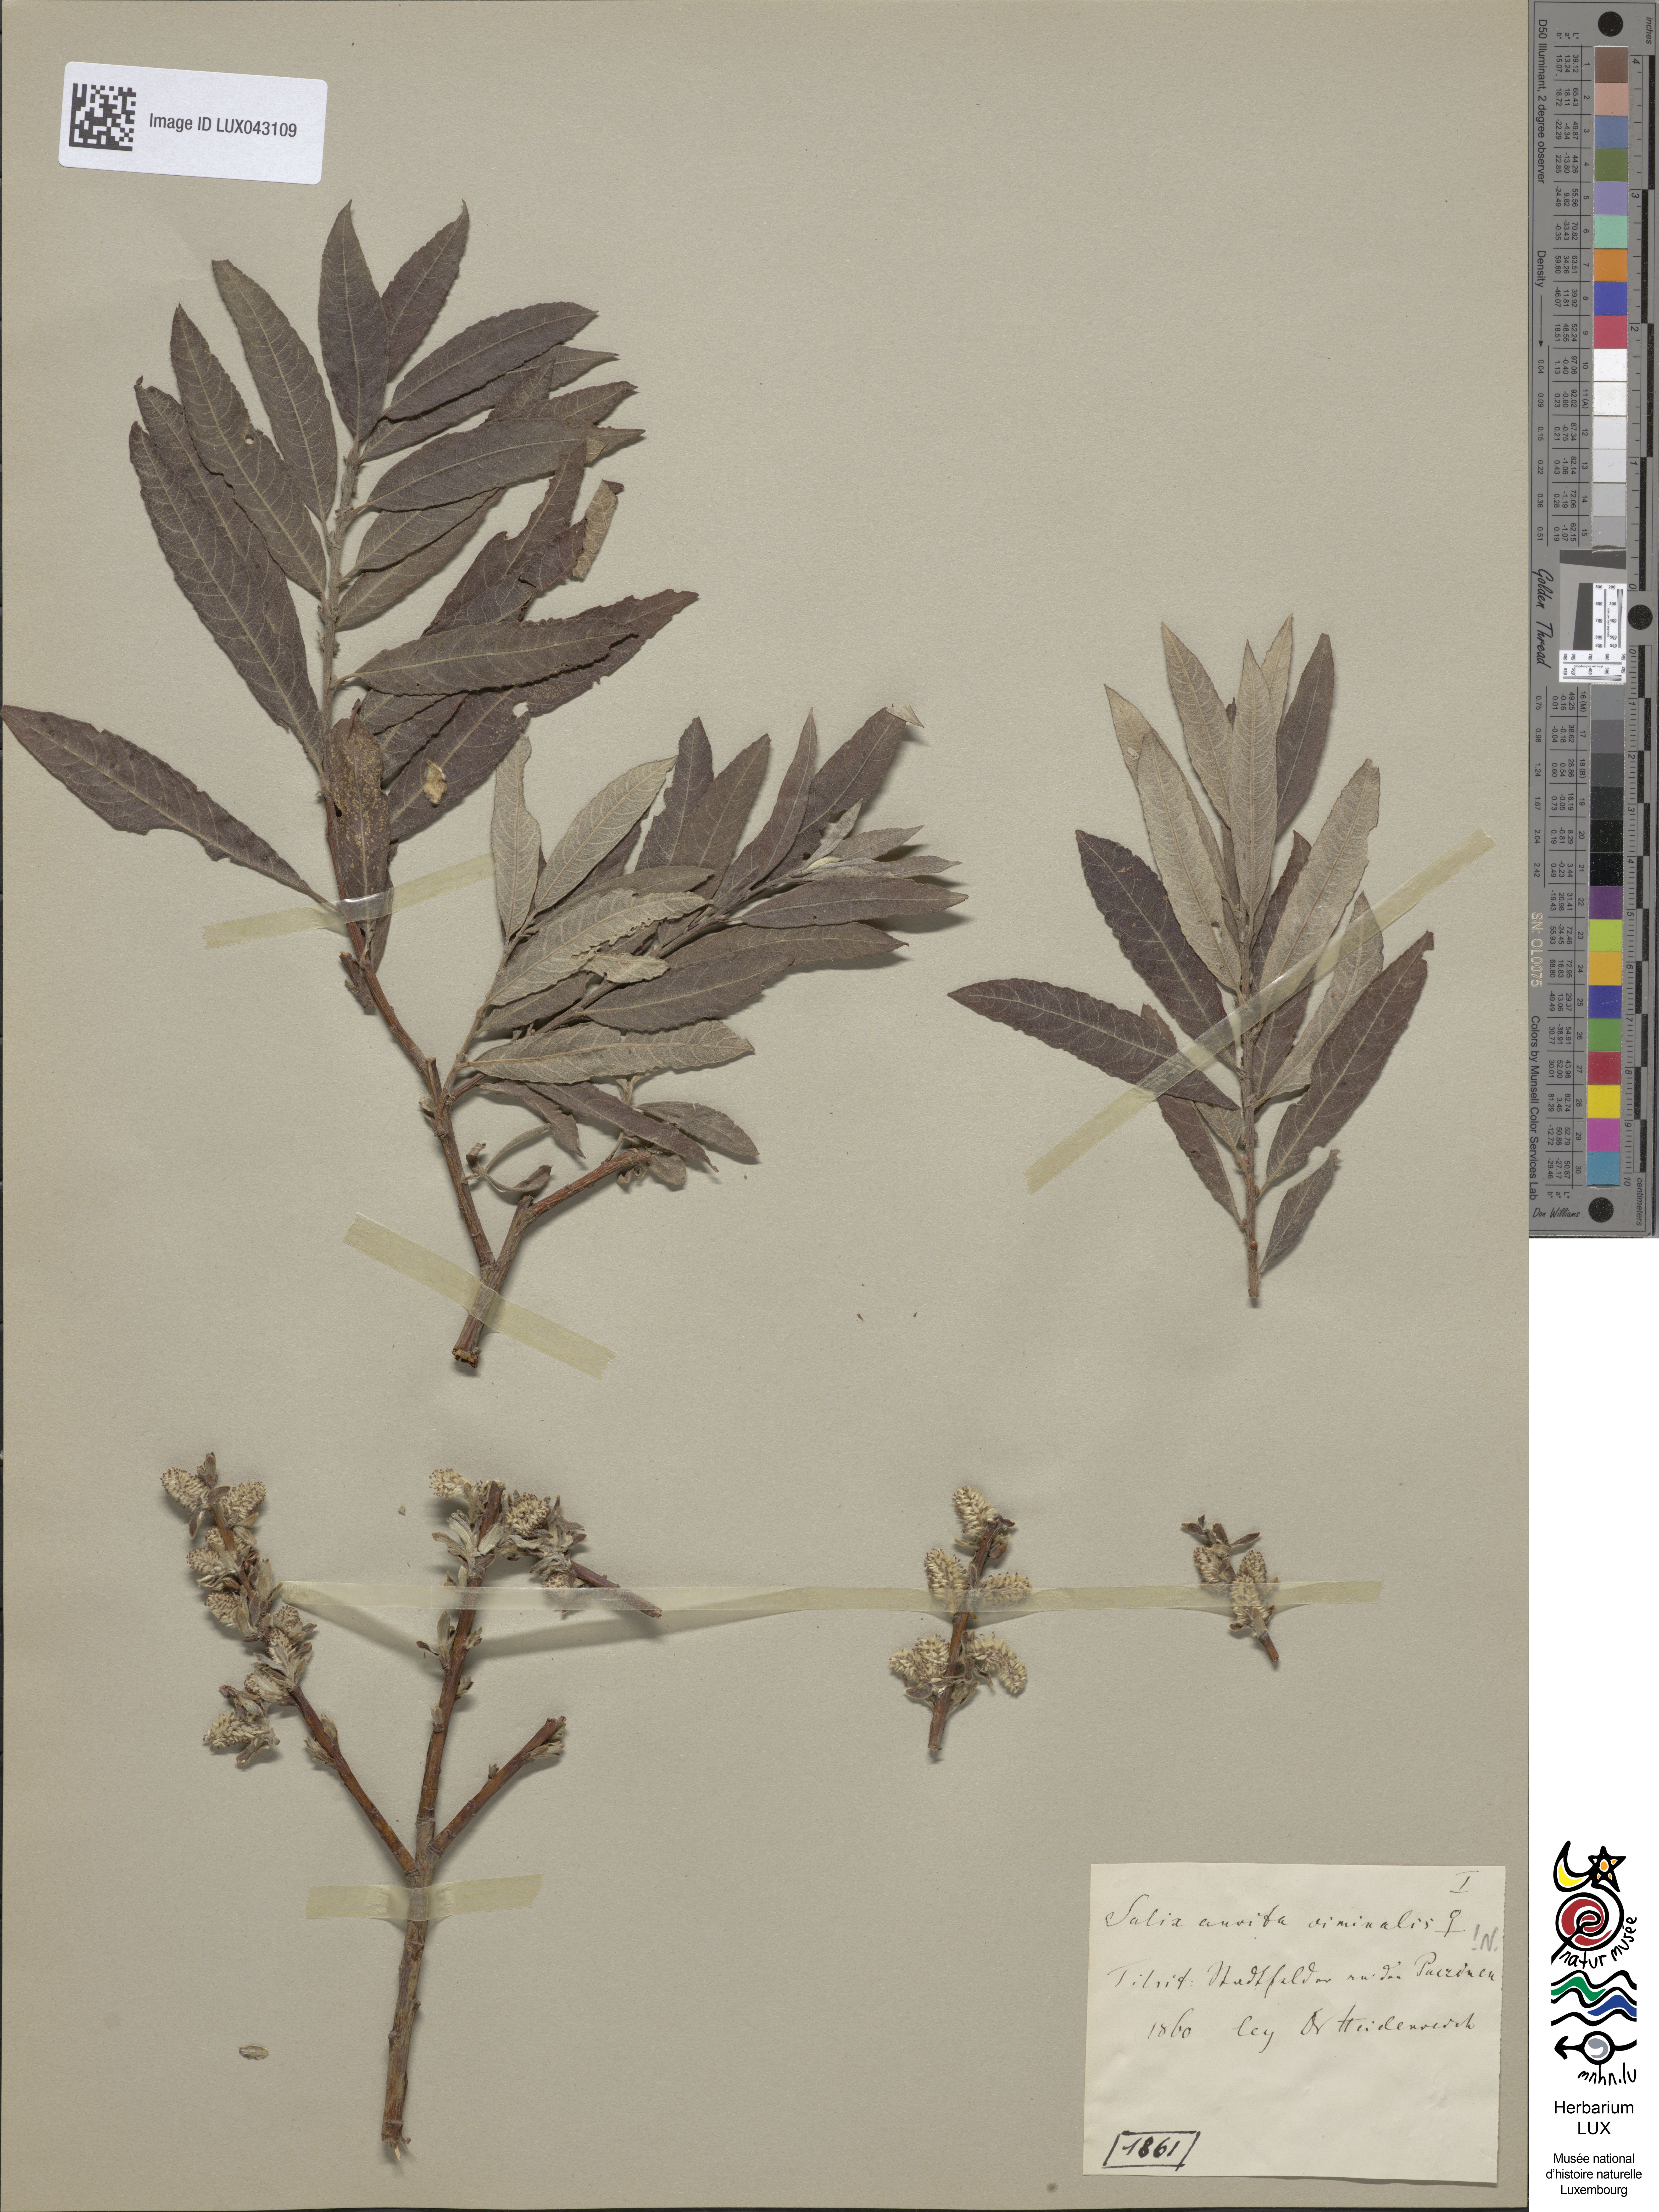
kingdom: Plantae
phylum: Tracheophyta
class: Magnoliopsida
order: Malpighiales
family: Salicaceae
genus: Salix
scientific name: Salix
